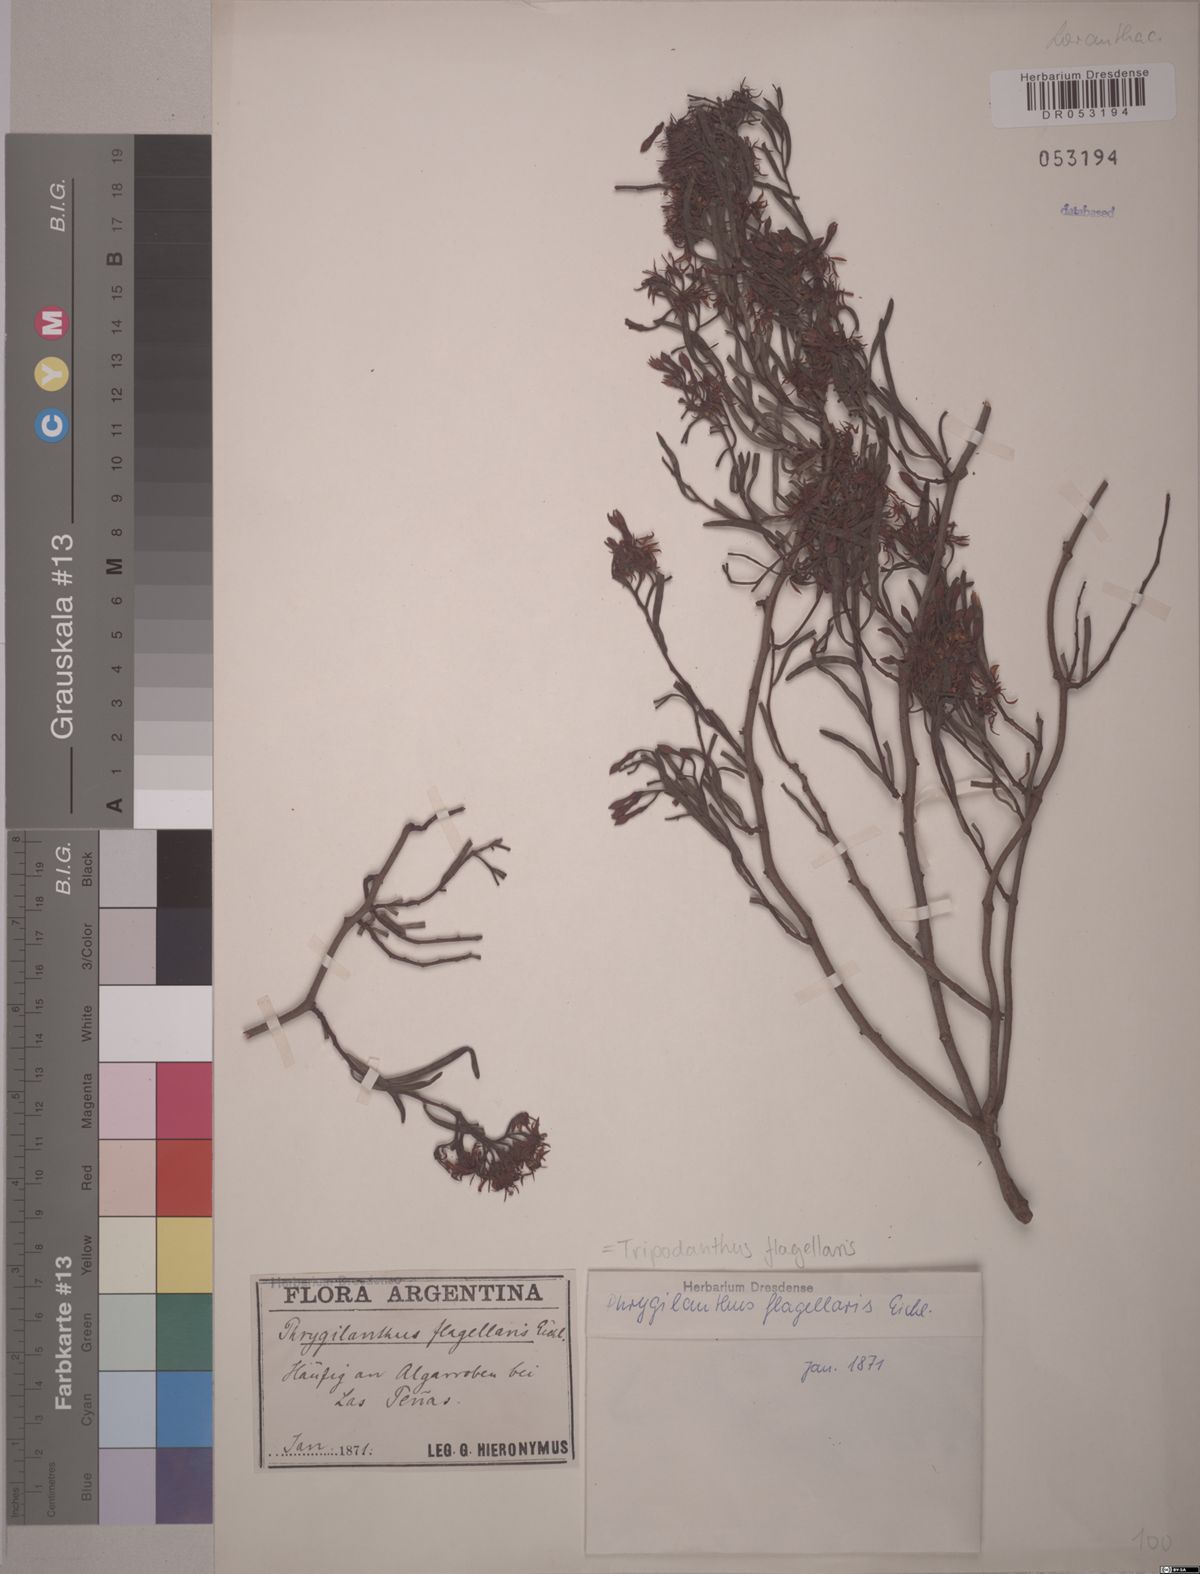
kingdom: Plantae
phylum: Tracheophyta
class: Magnoliopsida
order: Santalales
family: Loranthaceae
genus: Tripodanthus
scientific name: Tripodanthus flagellaris
